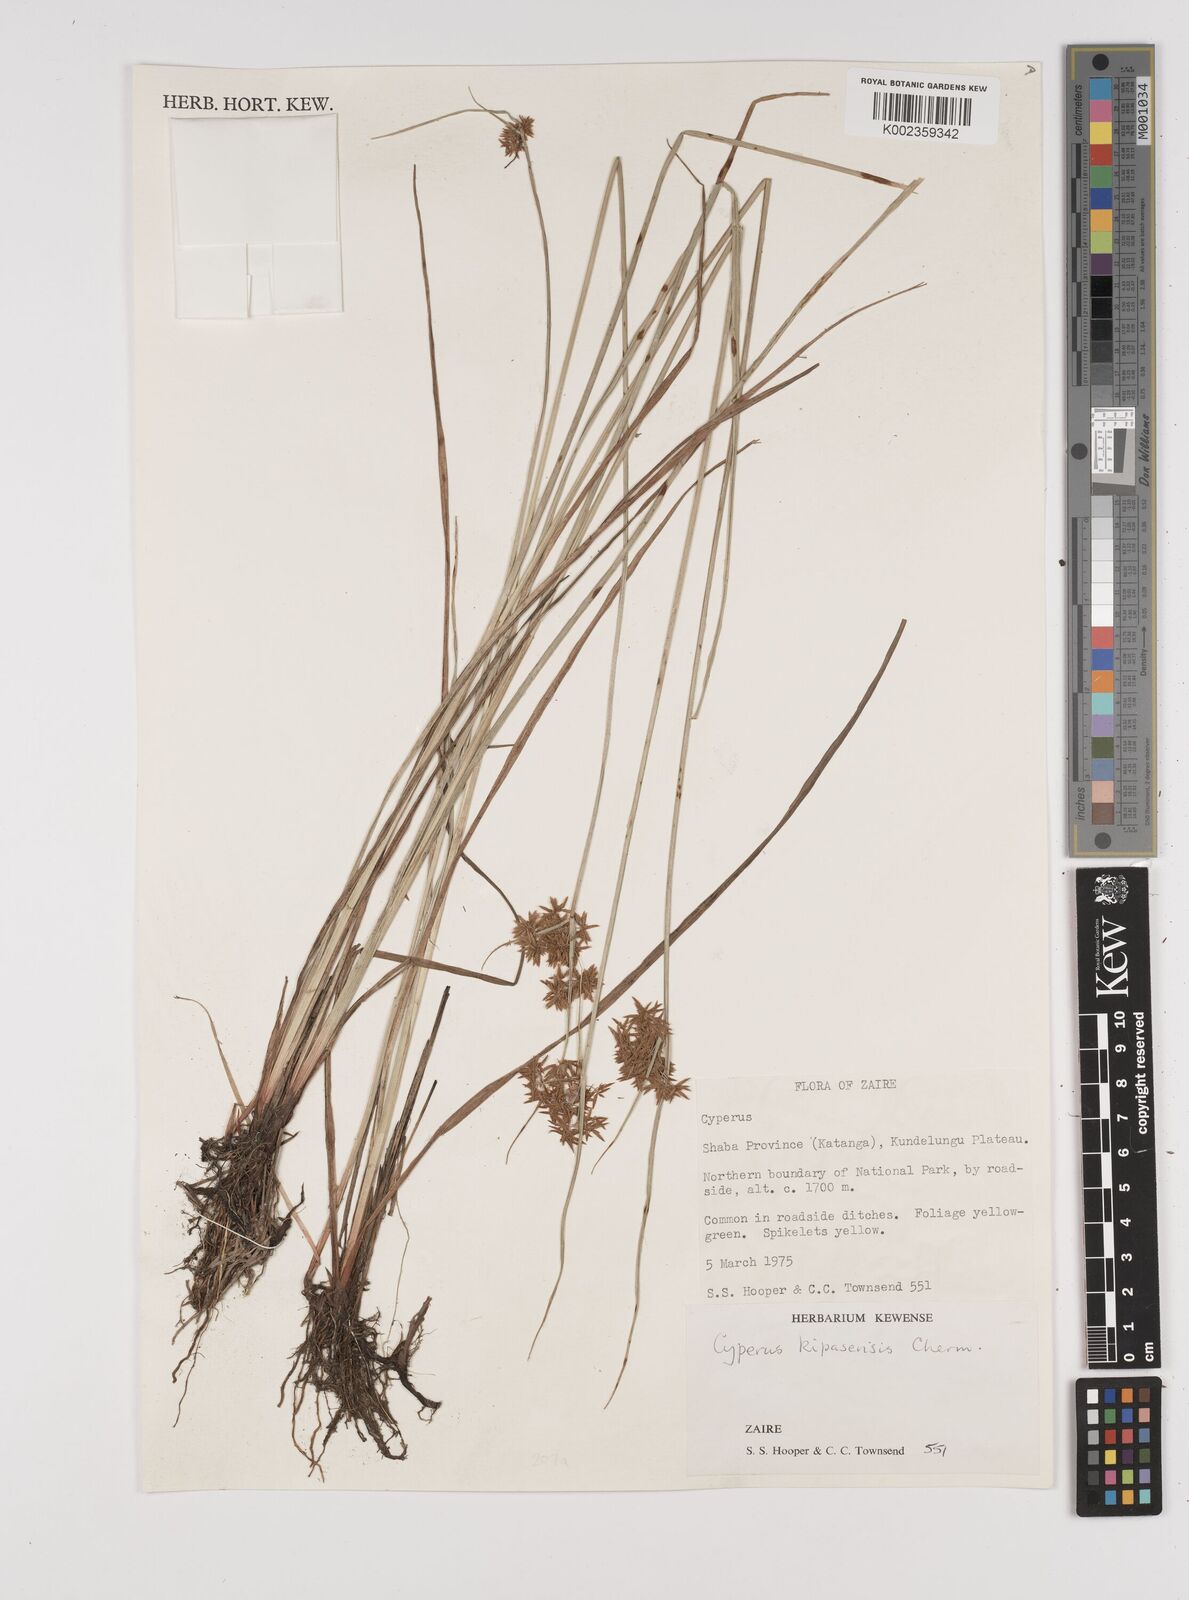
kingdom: Plantae
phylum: Tracheophyta
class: Liliopsida
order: Poales
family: Cyperaceae
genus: Cyperus
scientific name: Cyperus kipasensis
